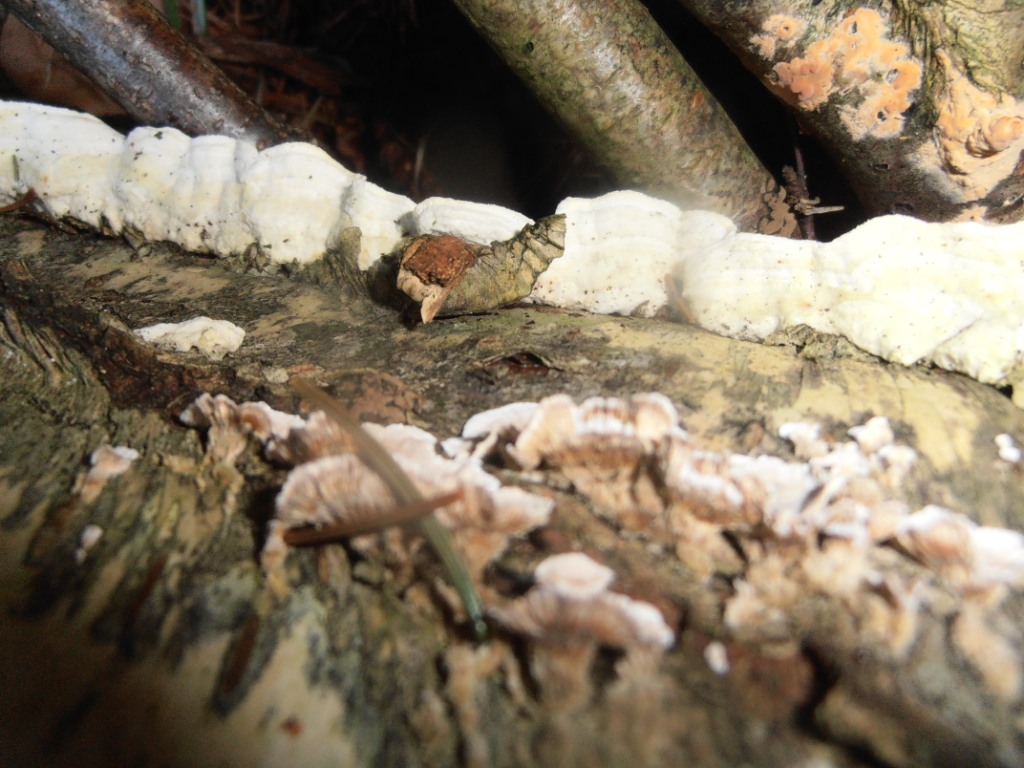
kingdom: Fungi
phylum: Basidiomycota
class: Agaricomycetes
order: Polyporales
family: Irpicaceae
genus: Byssomerulius
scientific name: Byssomerulius corium
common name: læder-åresvamp
